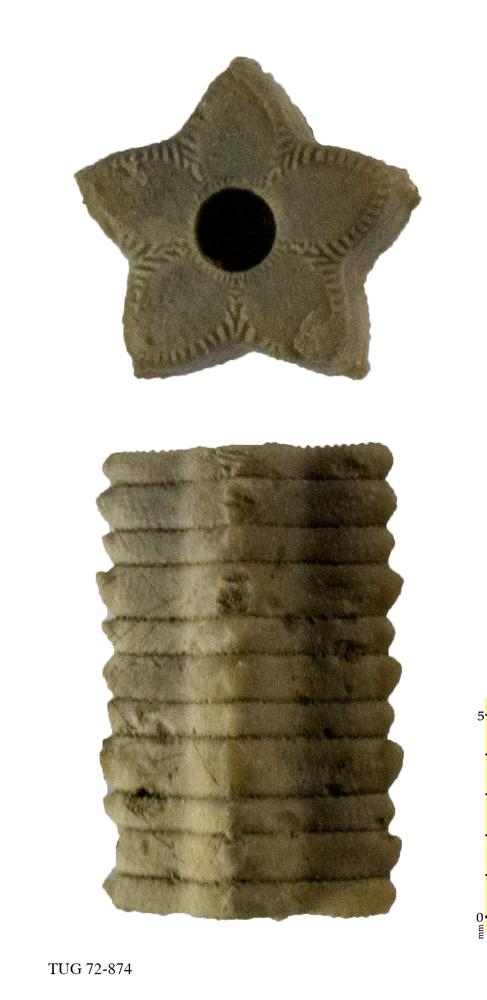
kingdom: Animalia
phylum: Echinodermata
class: Crinoidea
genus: Baltocrinus
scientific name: Baltocrinus
